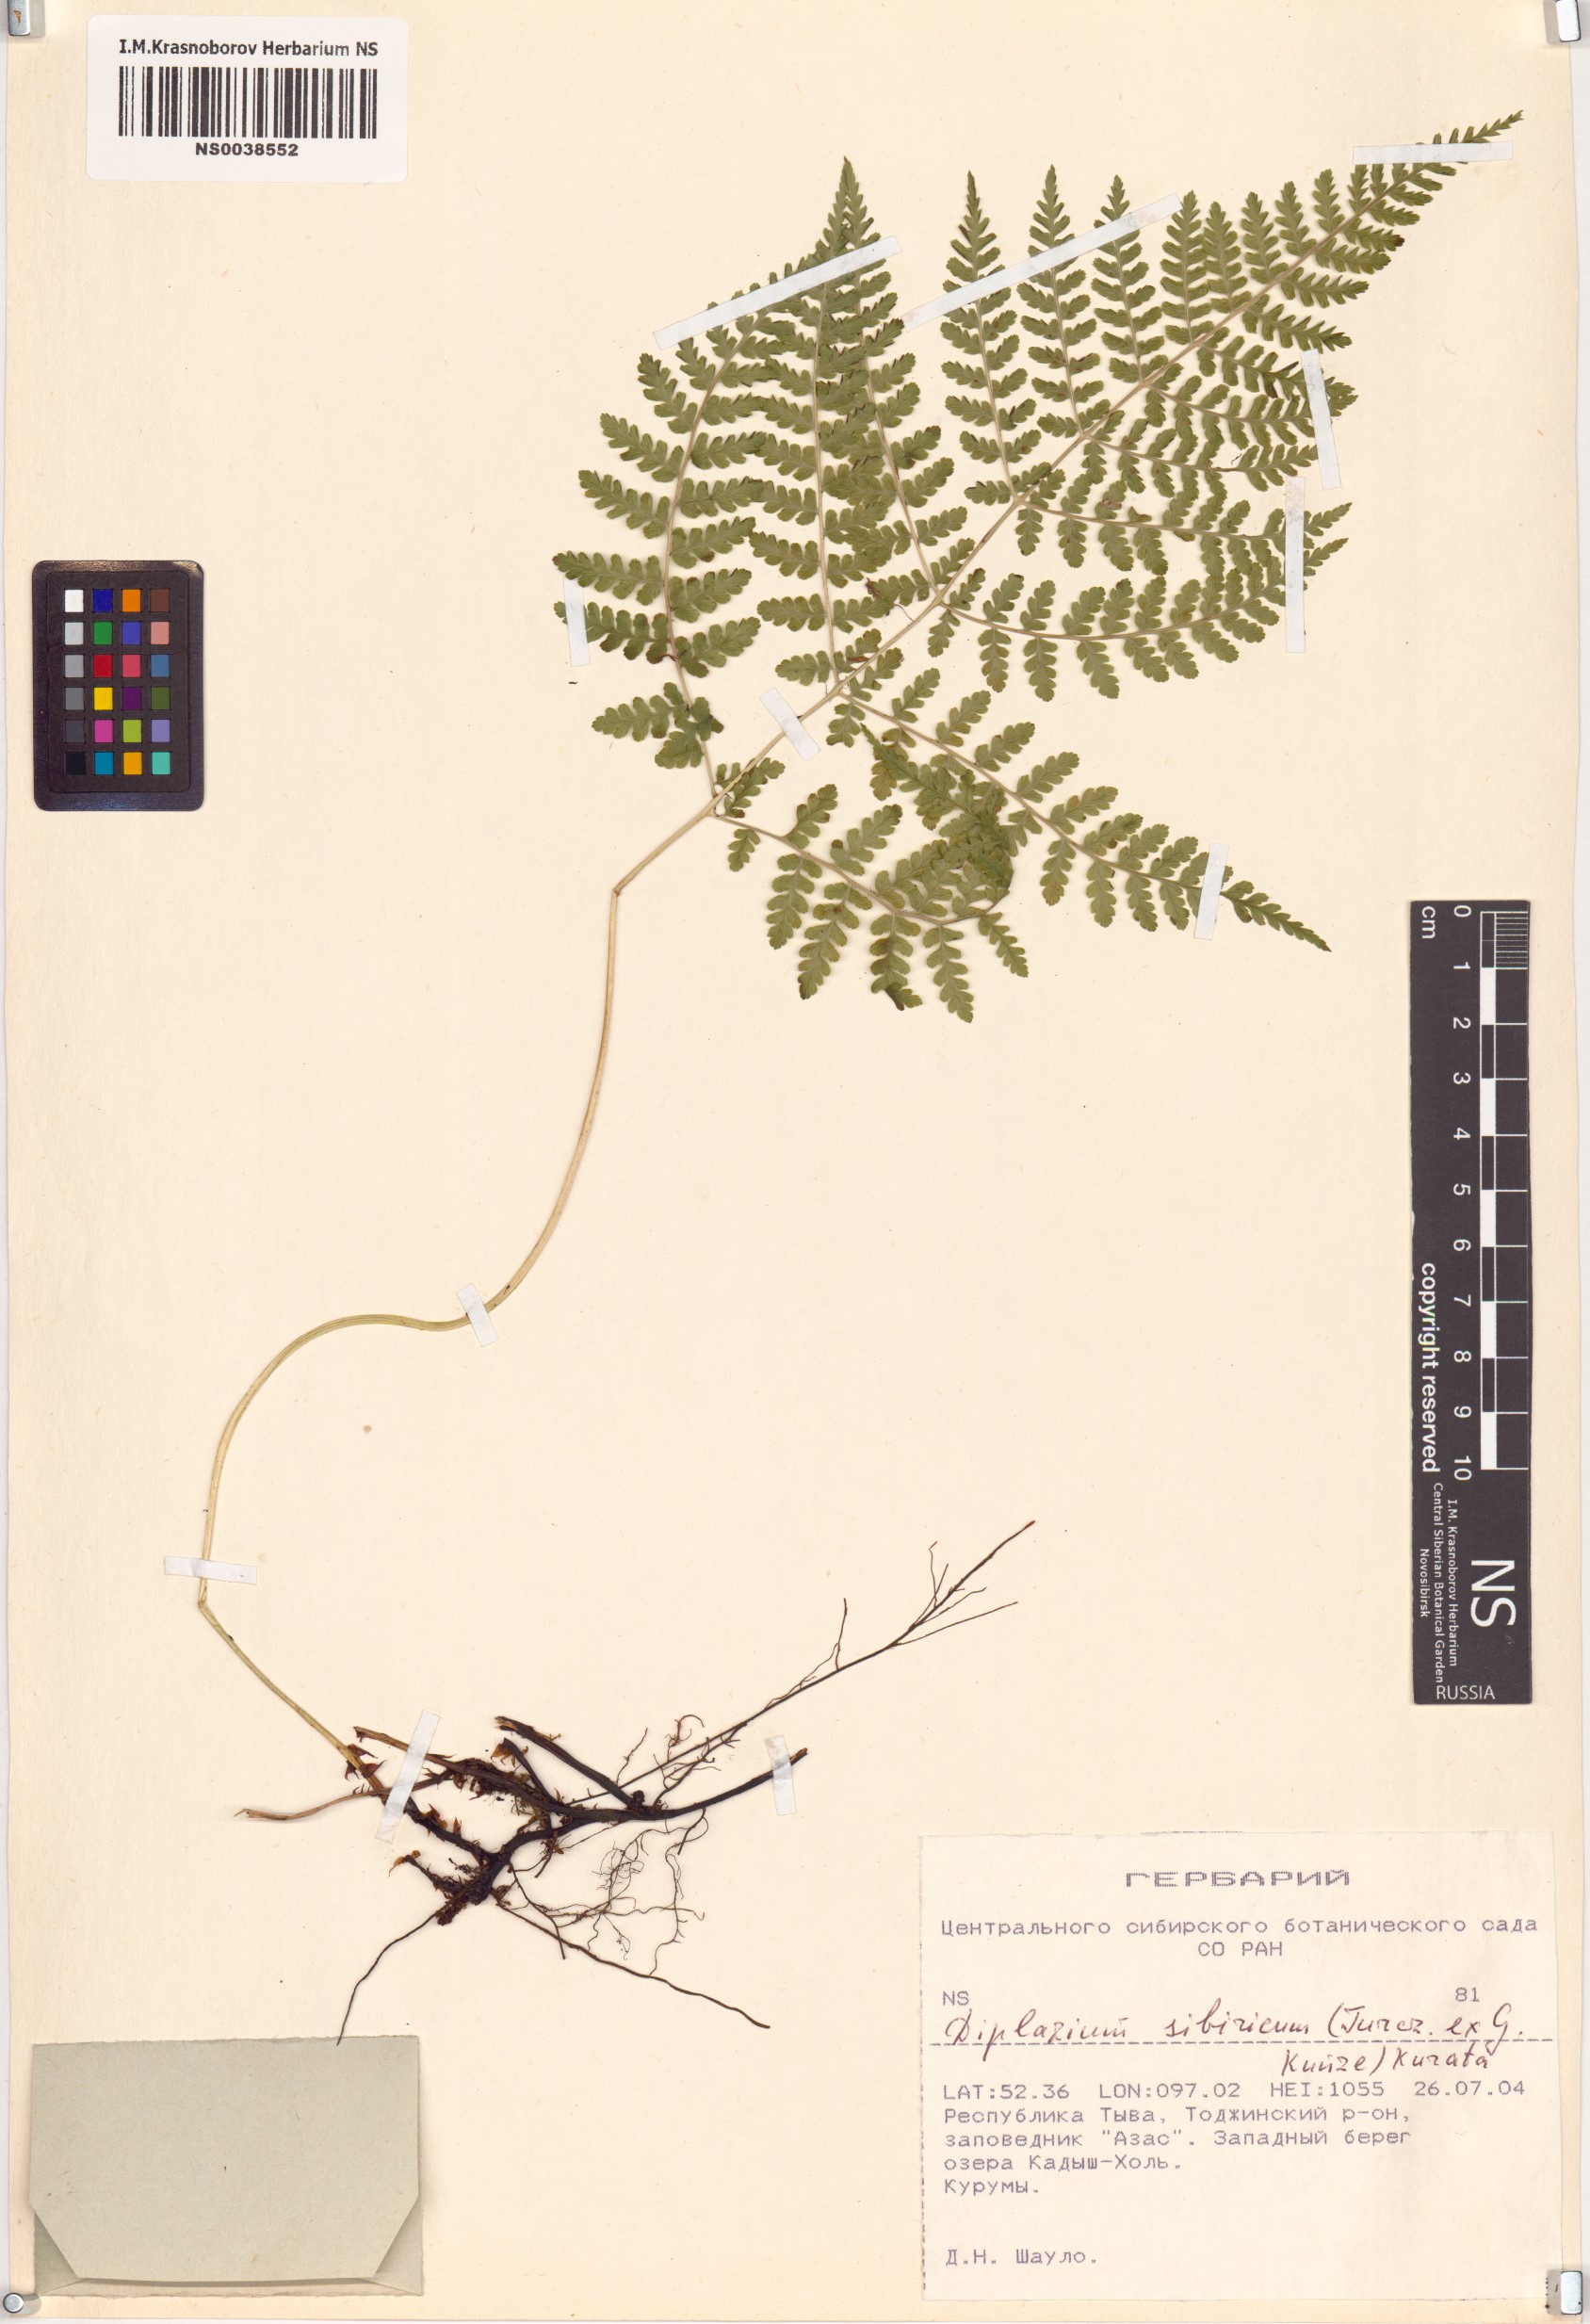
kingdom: Plantae
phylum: Tracheophyta
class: Polypodiopsida
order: Polypodiales
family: Athyriaceae
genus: Diplazium
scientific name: Diplazium sibiricum
